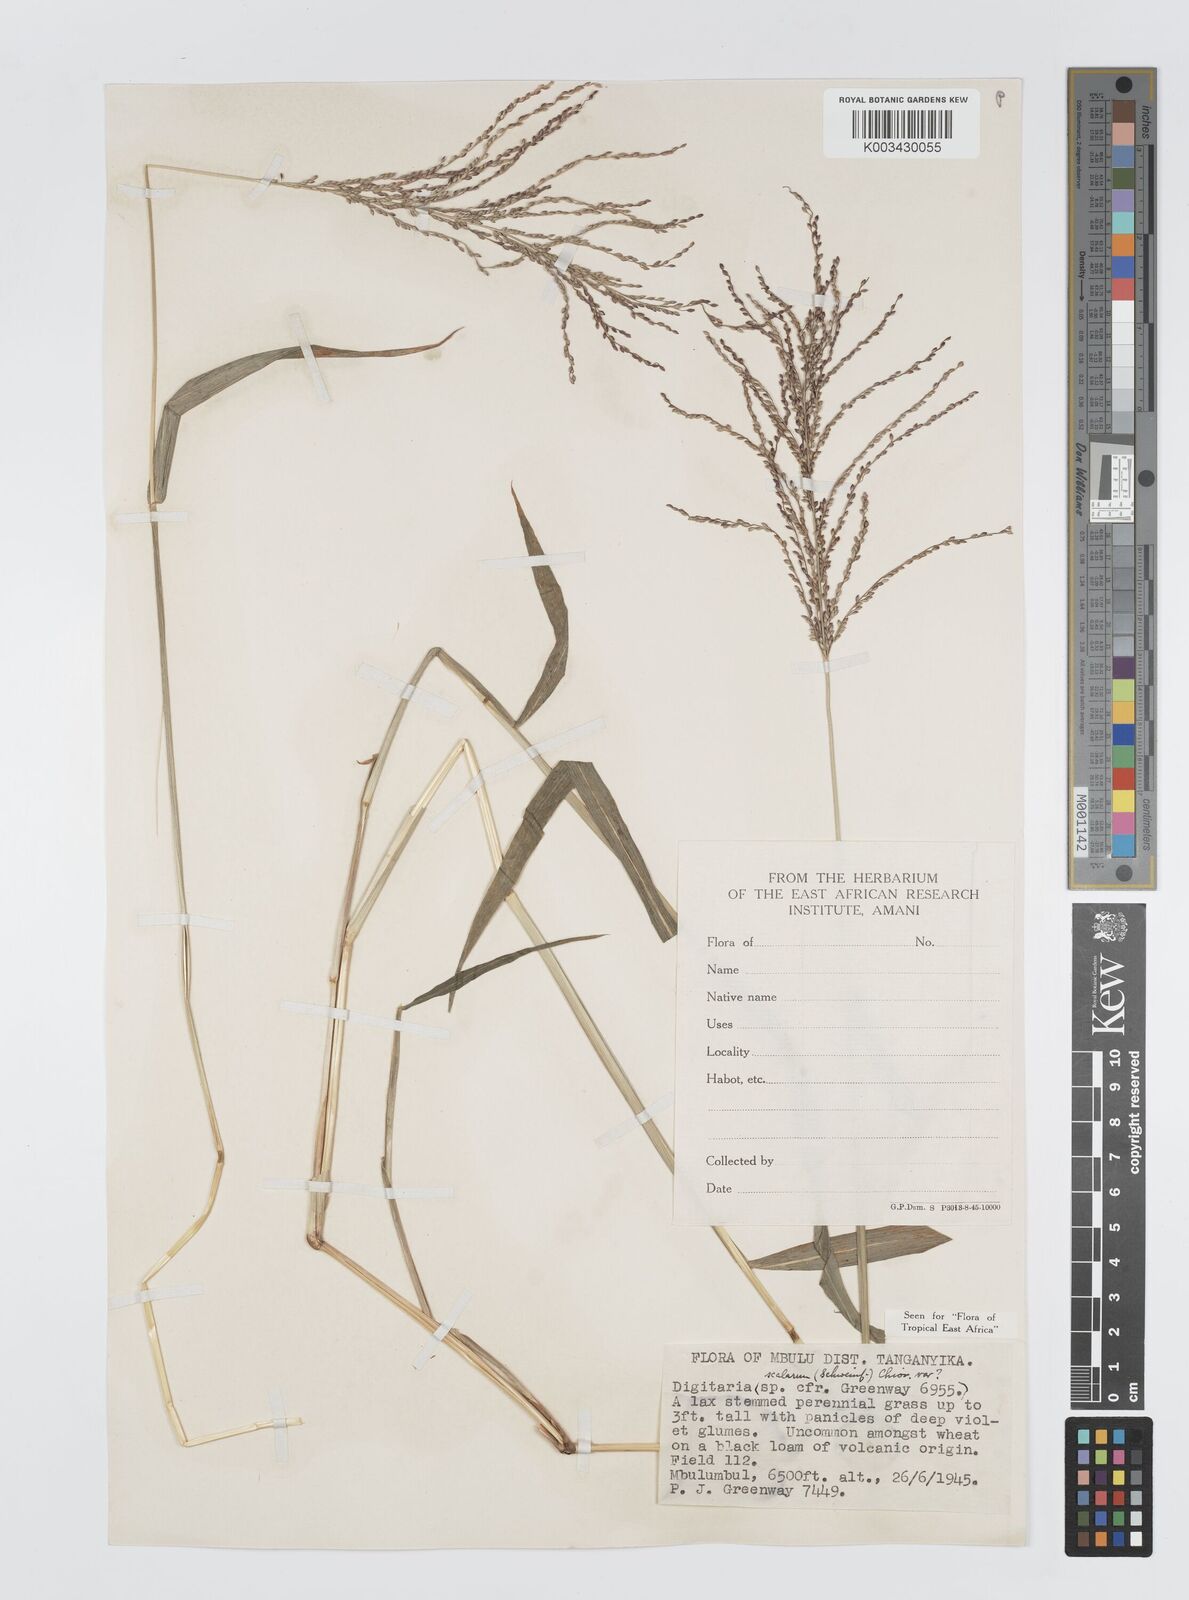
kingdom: Plantae
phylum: Tracheophyta
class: Liliopsida
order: Poales
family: Poaceae
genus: Digitaria
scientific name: Digitaria abyssinica
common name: African couchgrass
